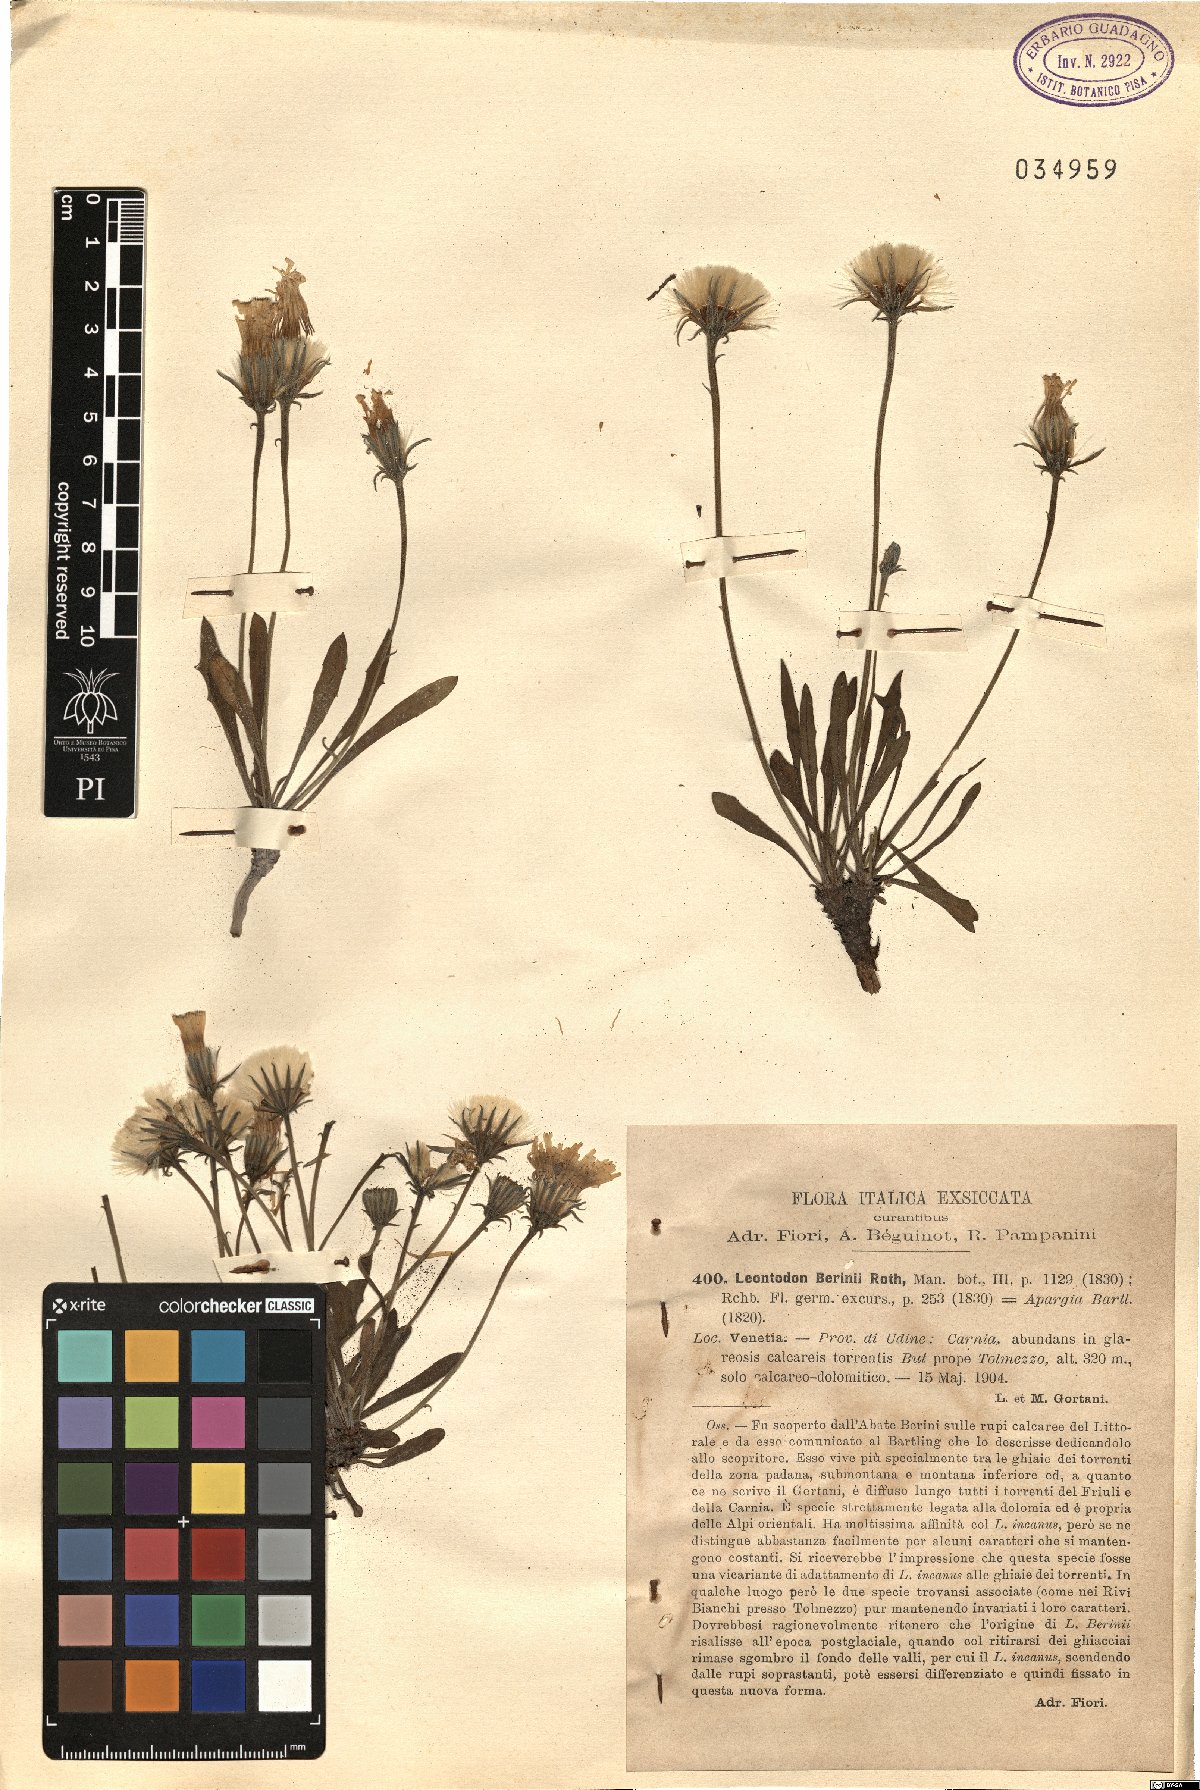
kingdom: Plantae
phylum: Tracheophyta
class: Magnoliopsida
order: Asterales
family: Asteraceae
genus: Leontodon
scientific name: Leontodon berinii
